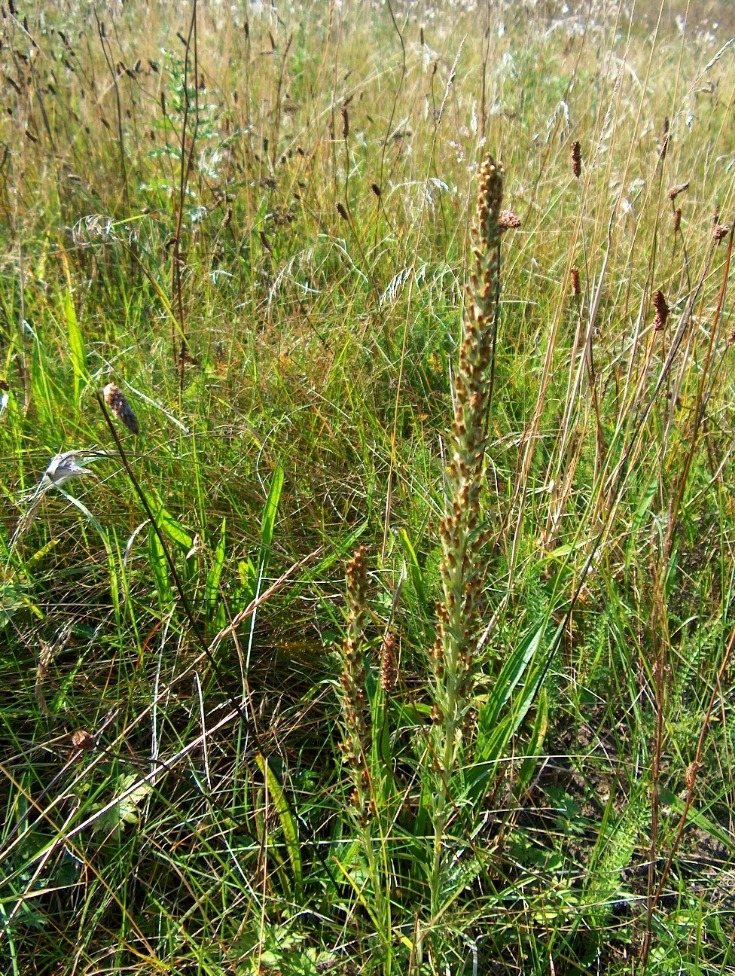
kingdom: Plantae
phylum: Tracheophyta
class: Magnoliopsida
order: Asterales
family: Asteraceae
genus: Omalotheca
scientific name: Omalotheca sylvatica
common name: Rank evighedsblomst
